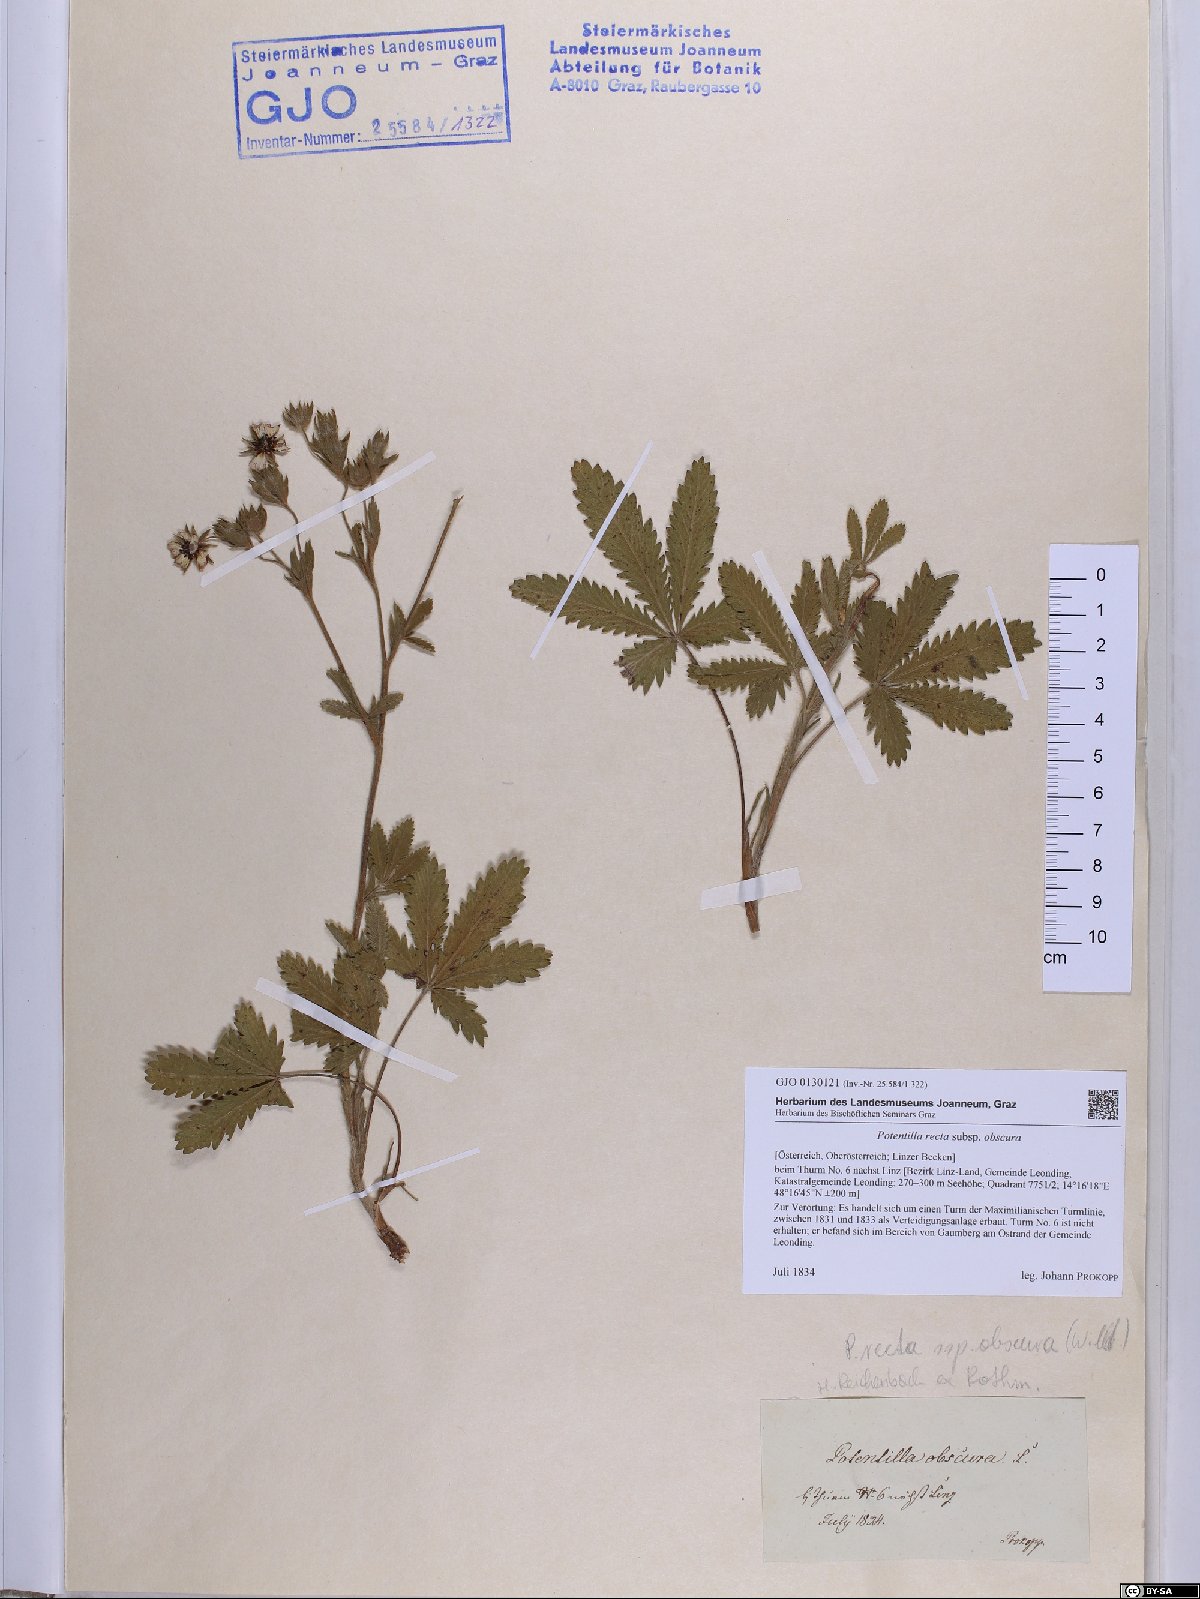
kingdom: Plantae
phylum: Tracheophyta
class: Magnoliopsida
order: Rosales
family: Rosaceae
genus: Potentilla
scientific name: Potentilla recta
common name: Sulphur cinquefoil
